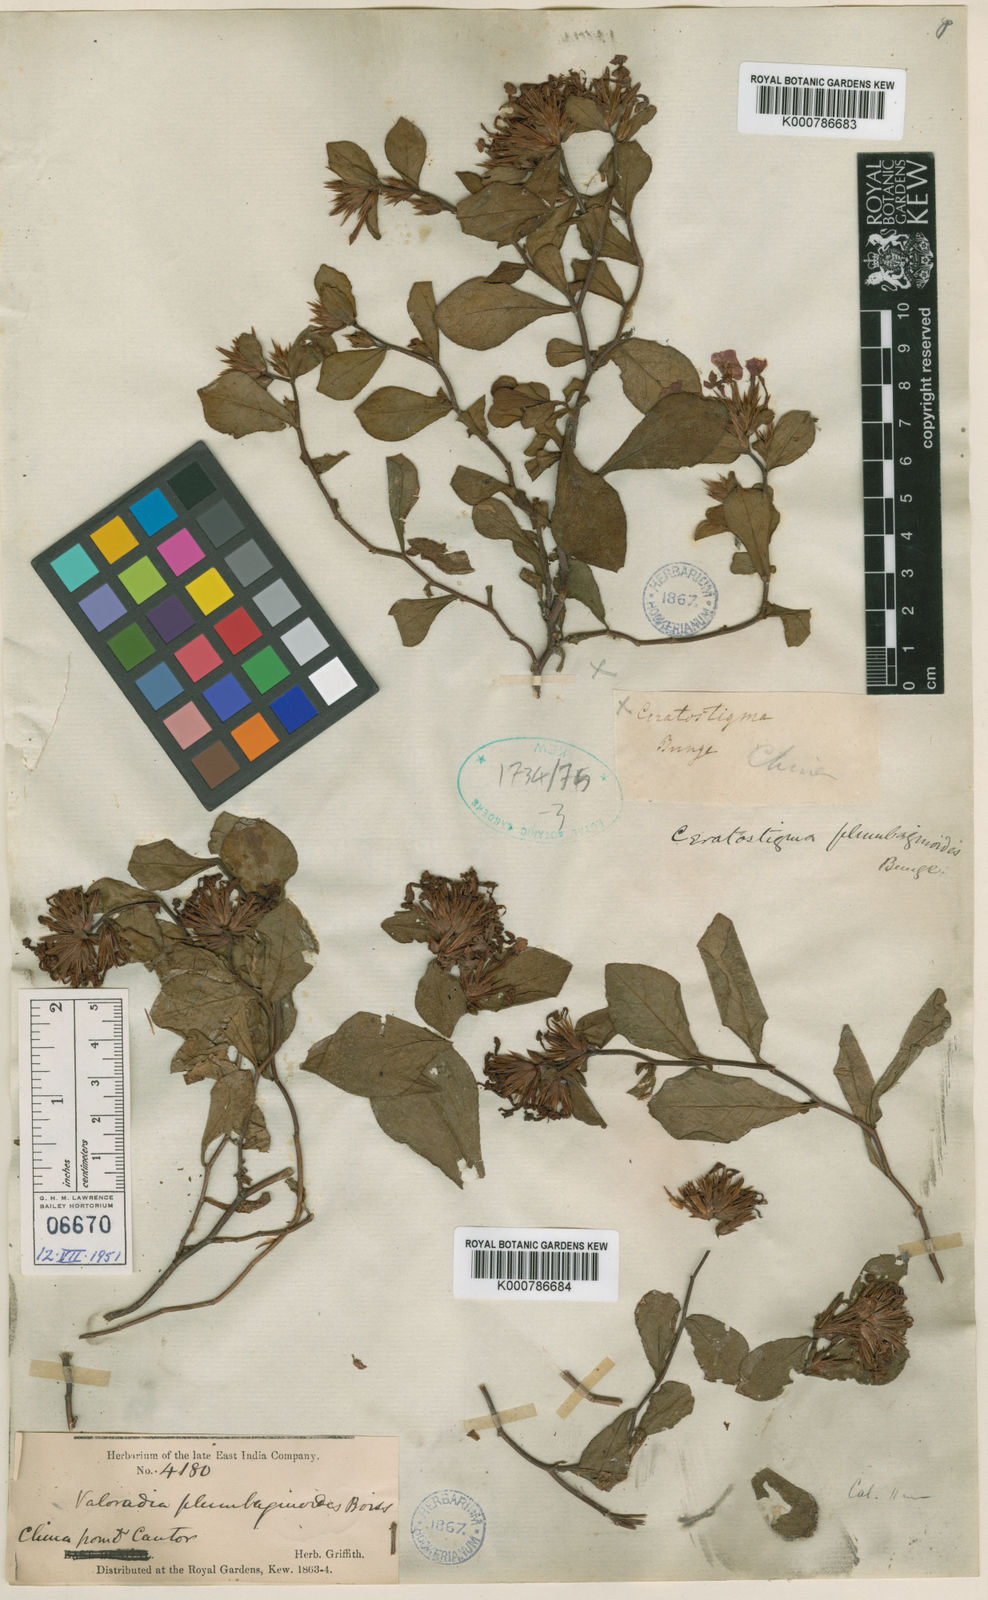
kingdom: Plantae
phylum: Tracheophyta
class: Magnoliopsida
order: Caryophyllales
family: Plumbaginaceae
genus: Ceratostigma
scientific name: Ceratostigma plumbaginoides
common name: Blue leadwood
